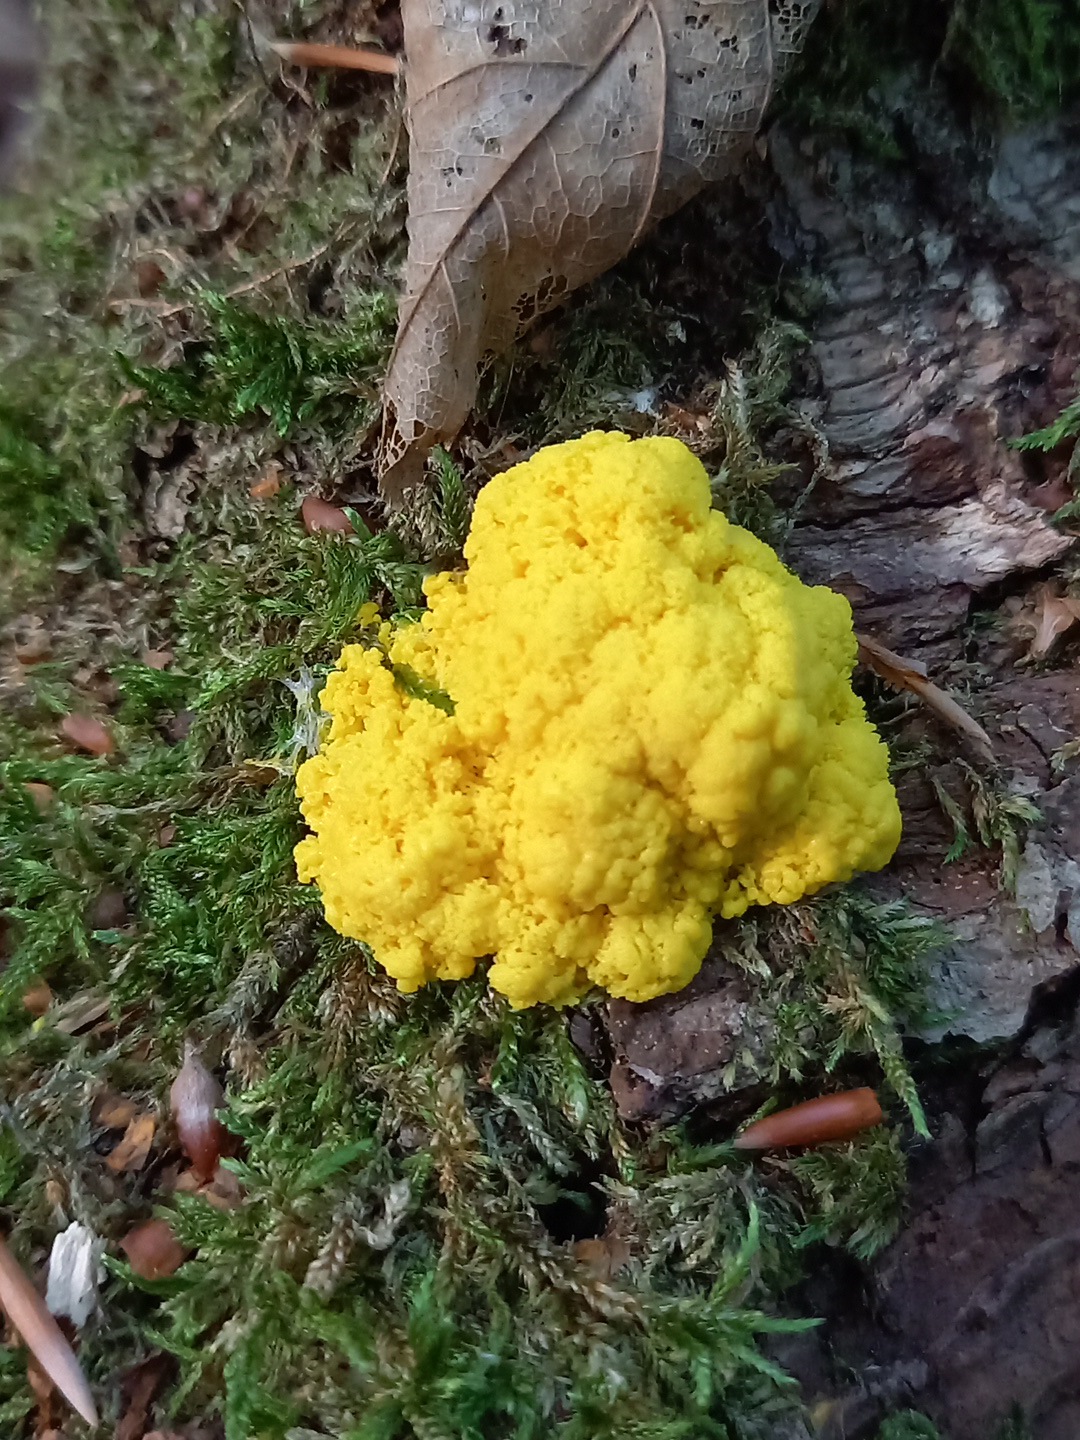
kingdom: Protozoa
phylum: Mycetozoa
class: Myxomycetes
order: Physarales
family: Physaraceae
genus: Fuligo
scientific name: Fuligo septica
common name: gul troldsmør
